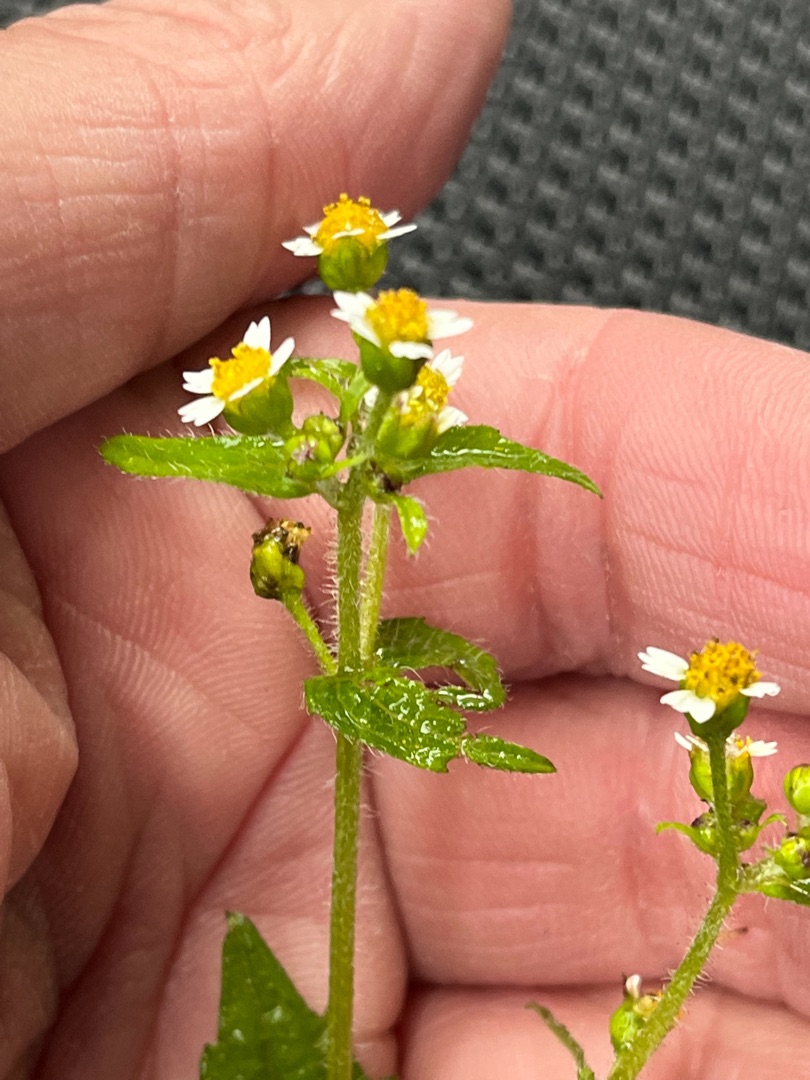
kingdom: Plantae
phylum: Tracheophyta
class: Magnoliopsida
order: Asterales
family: Asteraceae
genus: Galinsoga
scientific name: Galinsoga quadriradiata
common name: Kirtel-kortstråle
